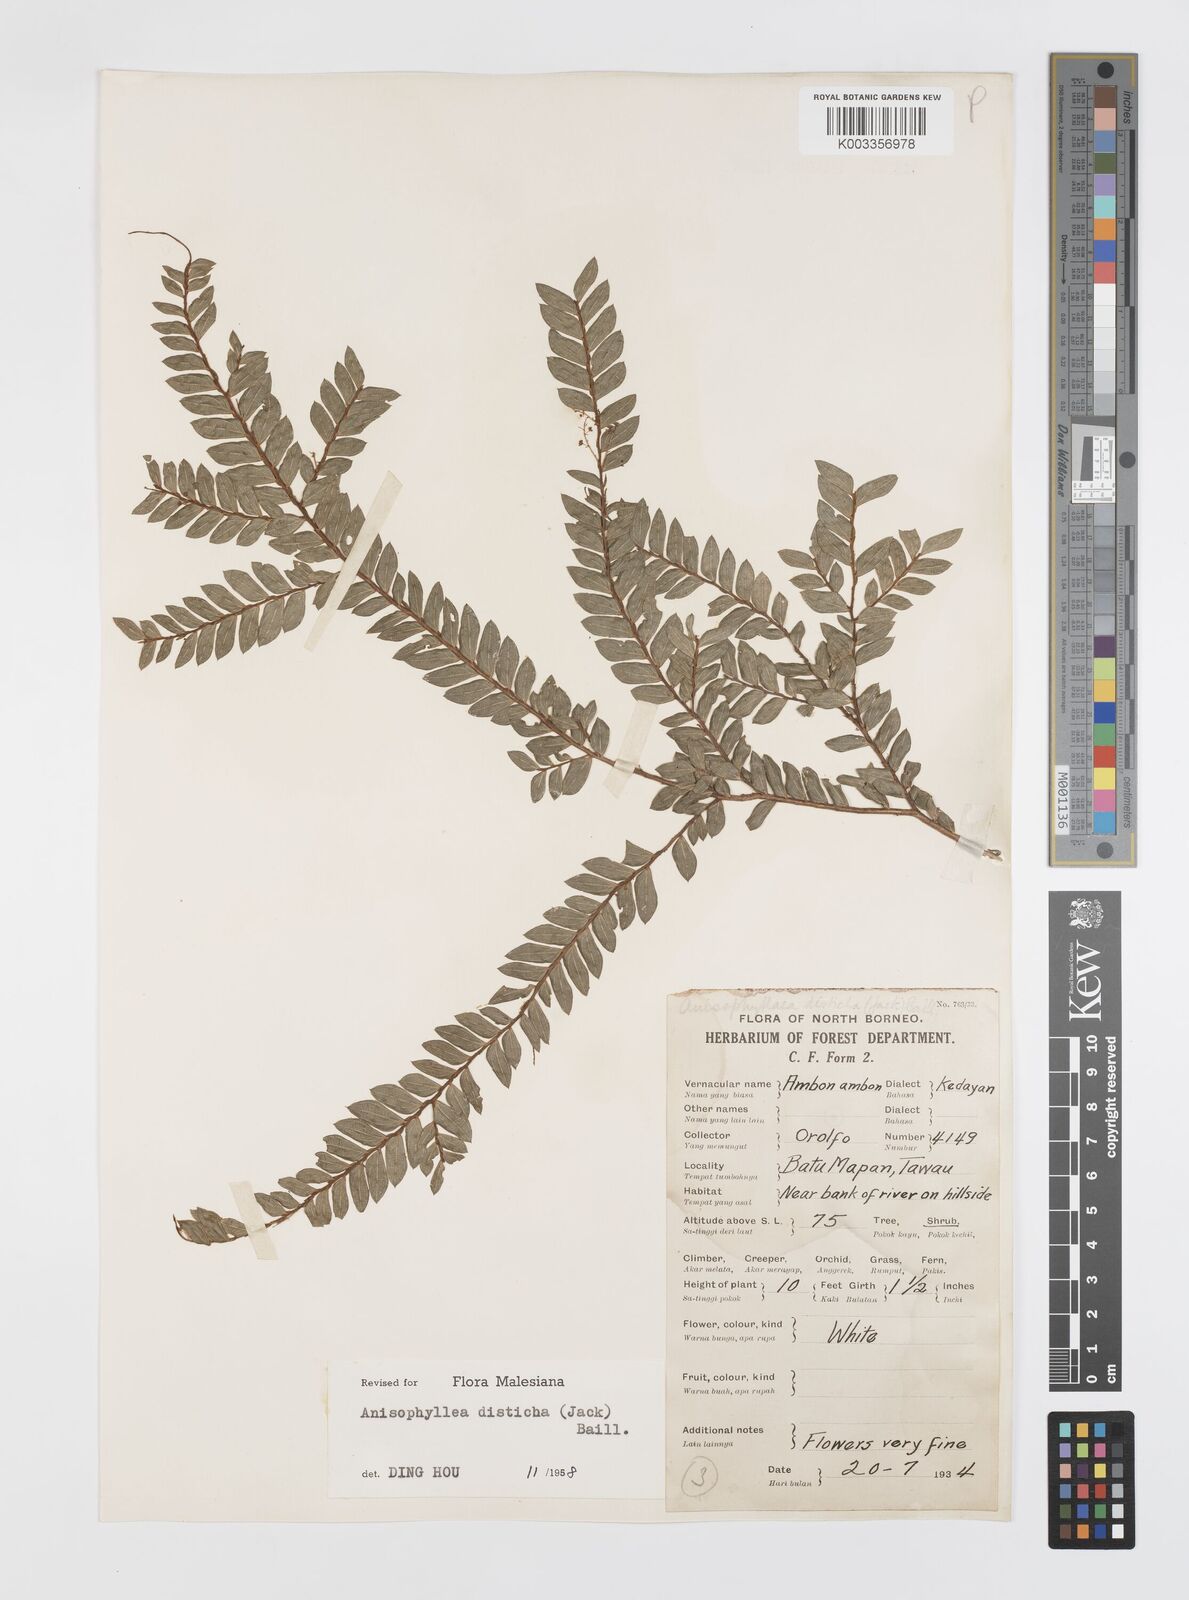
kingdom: Plantae
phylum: Tracheophyta
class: Magnoliopsida
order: Cucurbitales
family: Anisophylleaceae
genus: Anisophyllea
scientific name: Anisophyllea disticha
